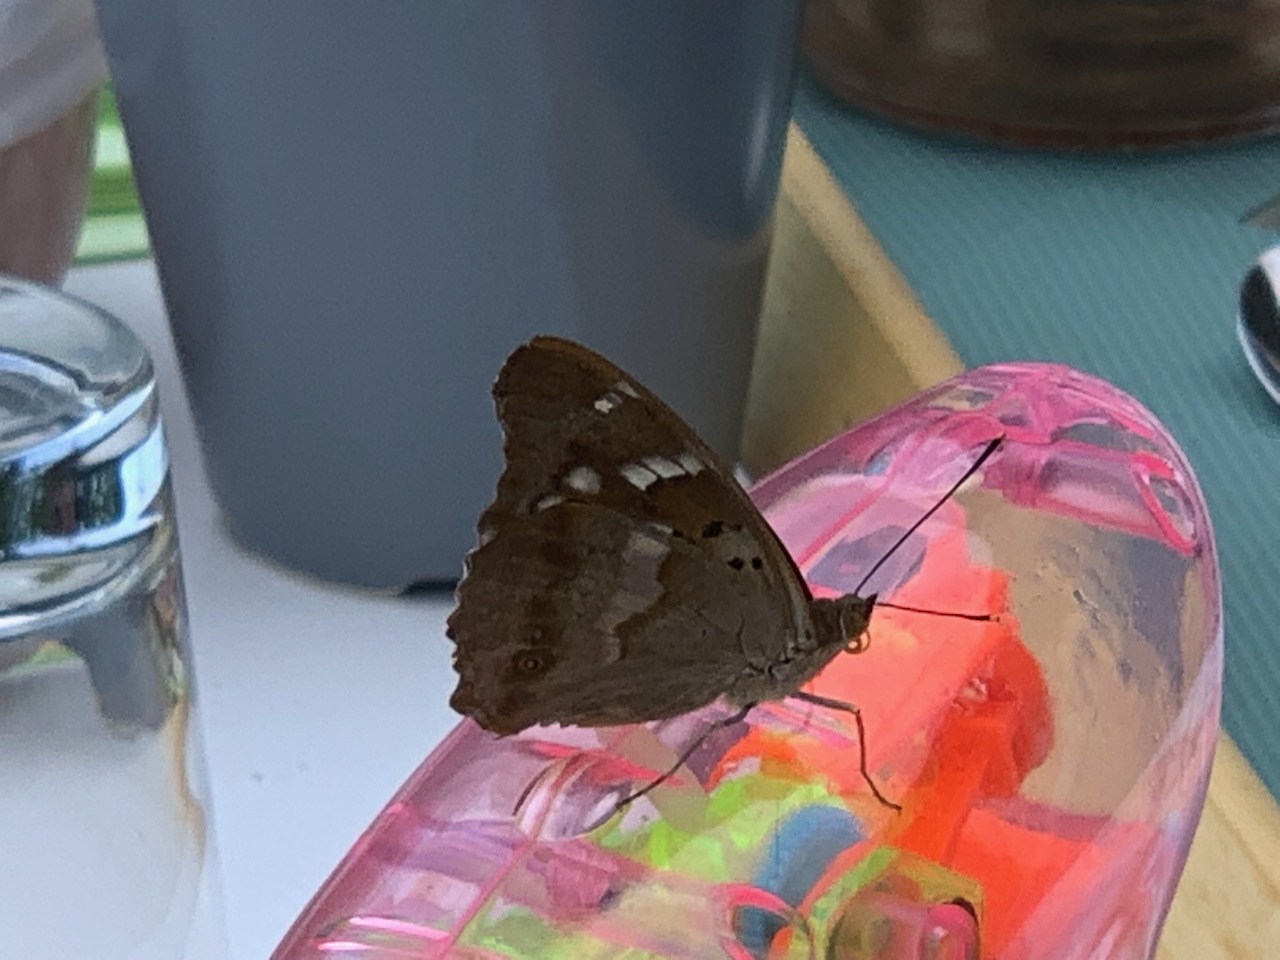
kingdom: Animalia
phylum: Arthropoda
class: Insecta
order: Lepidoptera
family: Nymphalidae
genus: Apatura
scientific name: Apatura ilia
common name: Lesser purple emperor
